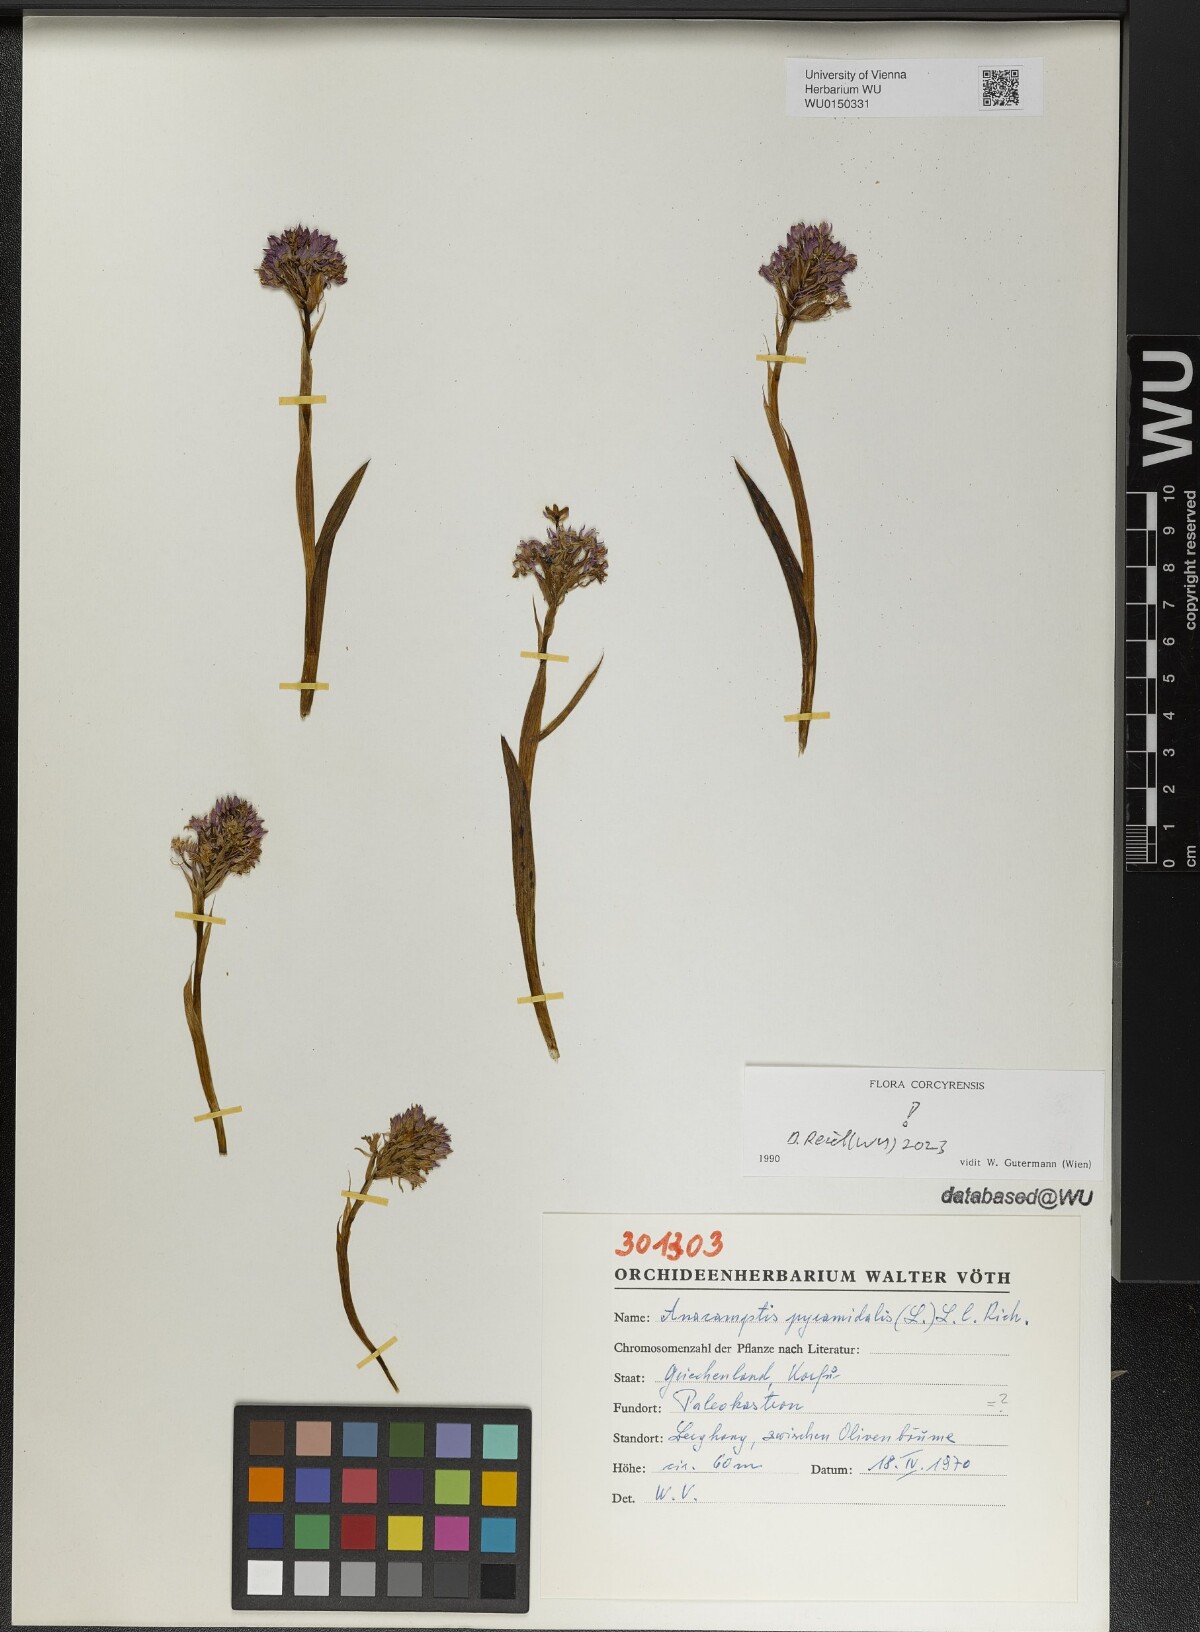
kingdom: Plantae
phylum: Tracheophyta
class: Liliopsida
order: Asparagales
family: Orchidaceae
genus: Anacamptis
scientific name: Anacamptis pyramidalis
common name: Pyramidal orchid
